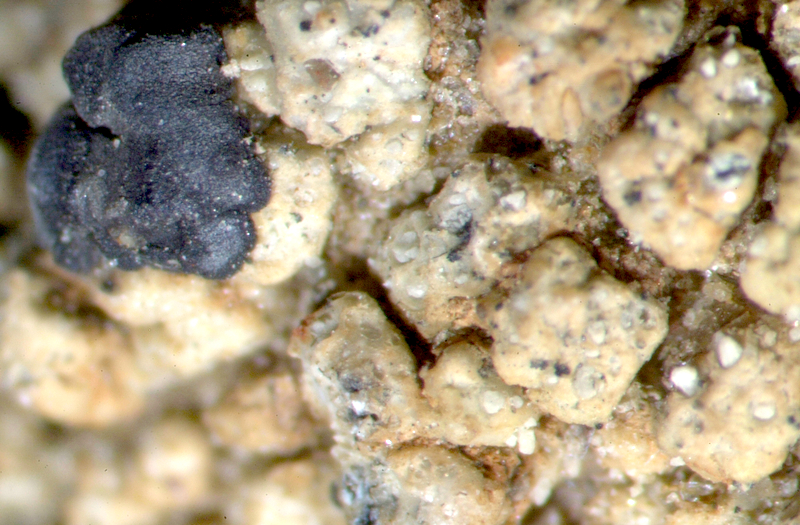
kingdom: Fungi
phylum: Ascomycota
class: Lecanoromycetes
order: Lecanorales
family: Ramalinaceae
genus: Ramalina
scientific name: Ramalina capensis
